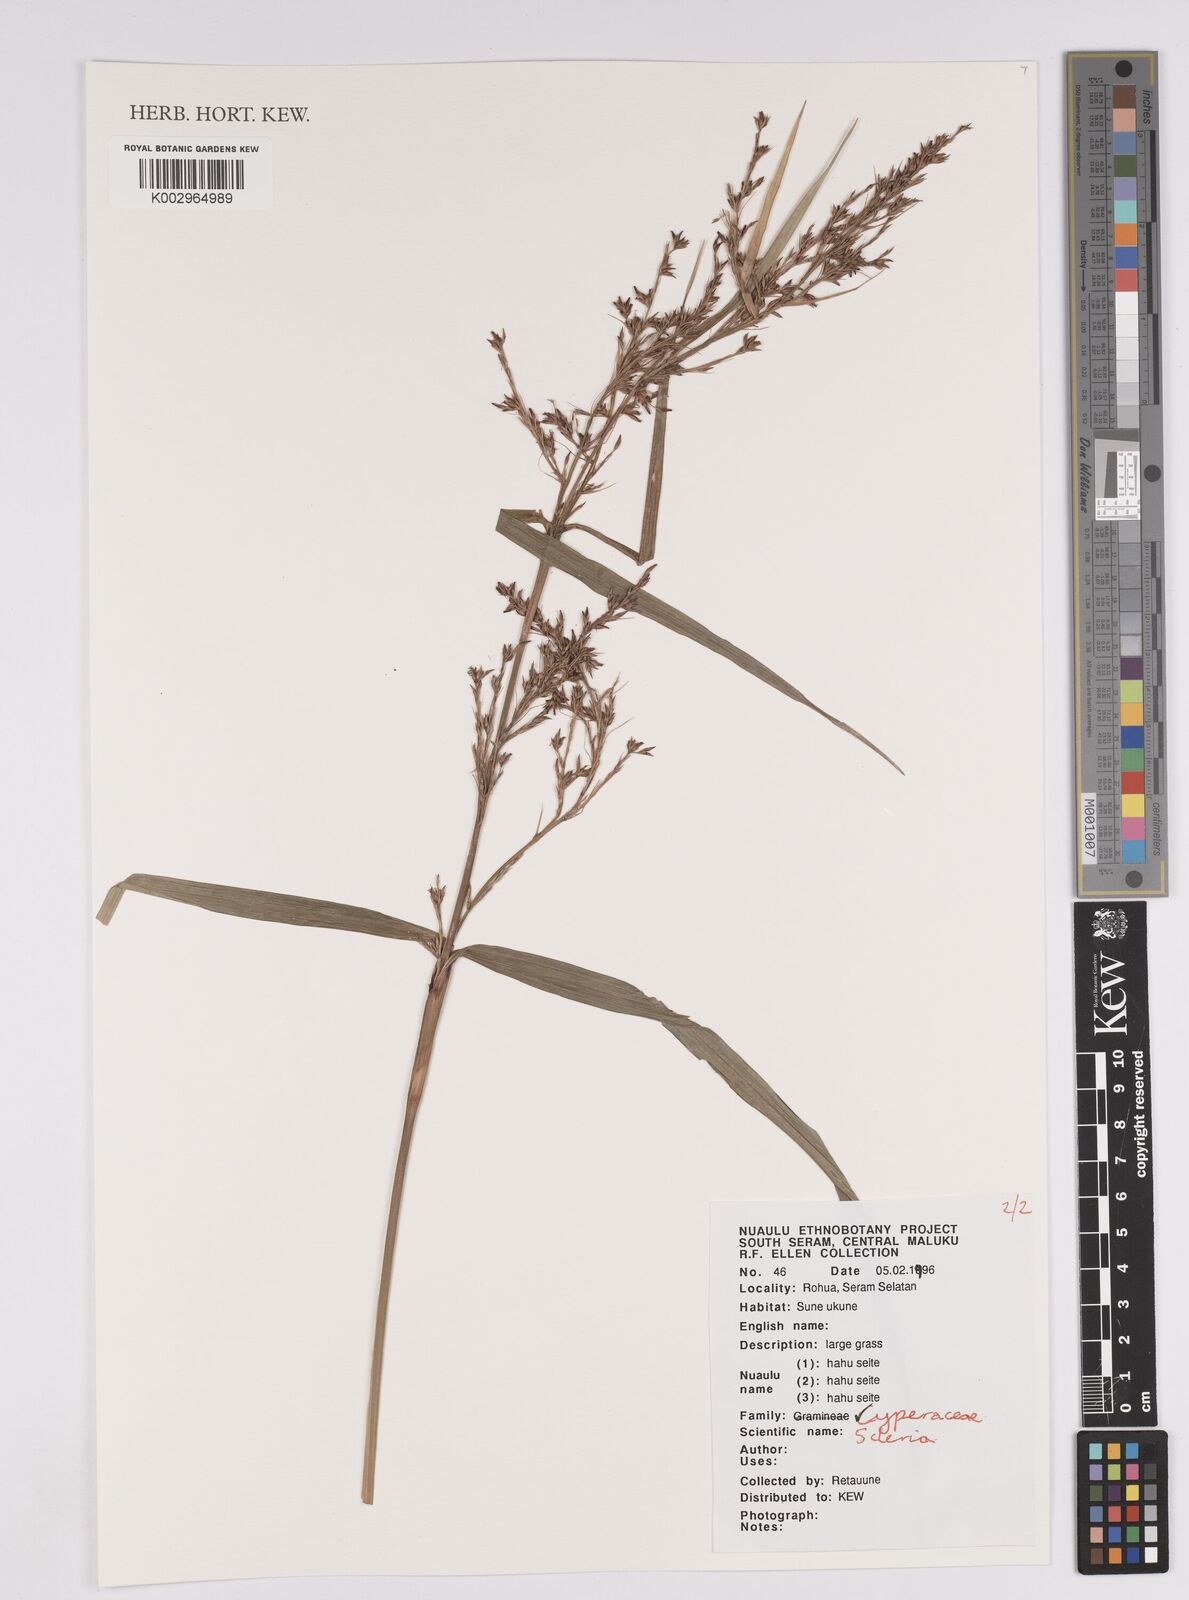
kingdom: Plantae
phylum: Tracheophyta
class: Liliopsida
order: Poales
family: Cyperaceae
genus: Scleria
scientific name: Scleria
